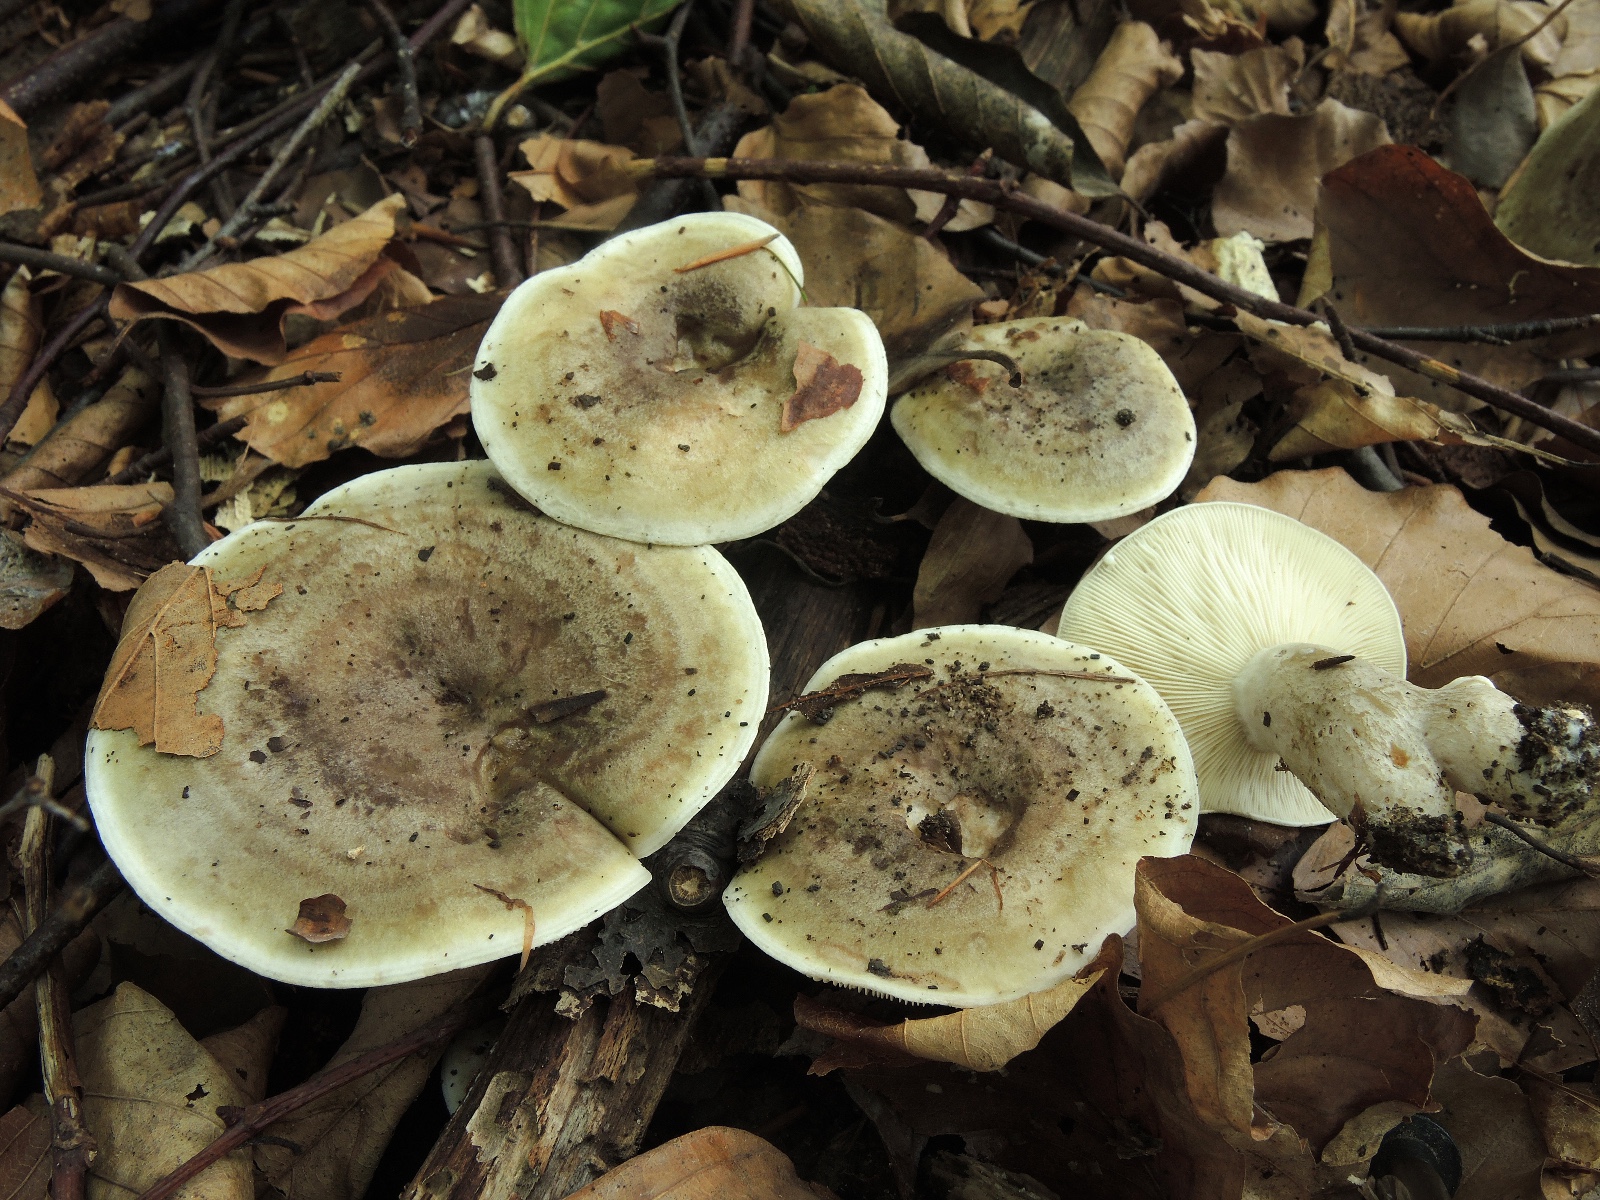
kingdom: Fungi
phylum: Basidiomycota
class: Agaricomycetes
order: Russulales
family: Russulaceae
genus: Lactarius
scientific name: Lactarius fluens
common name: lysrandet mælkehat
